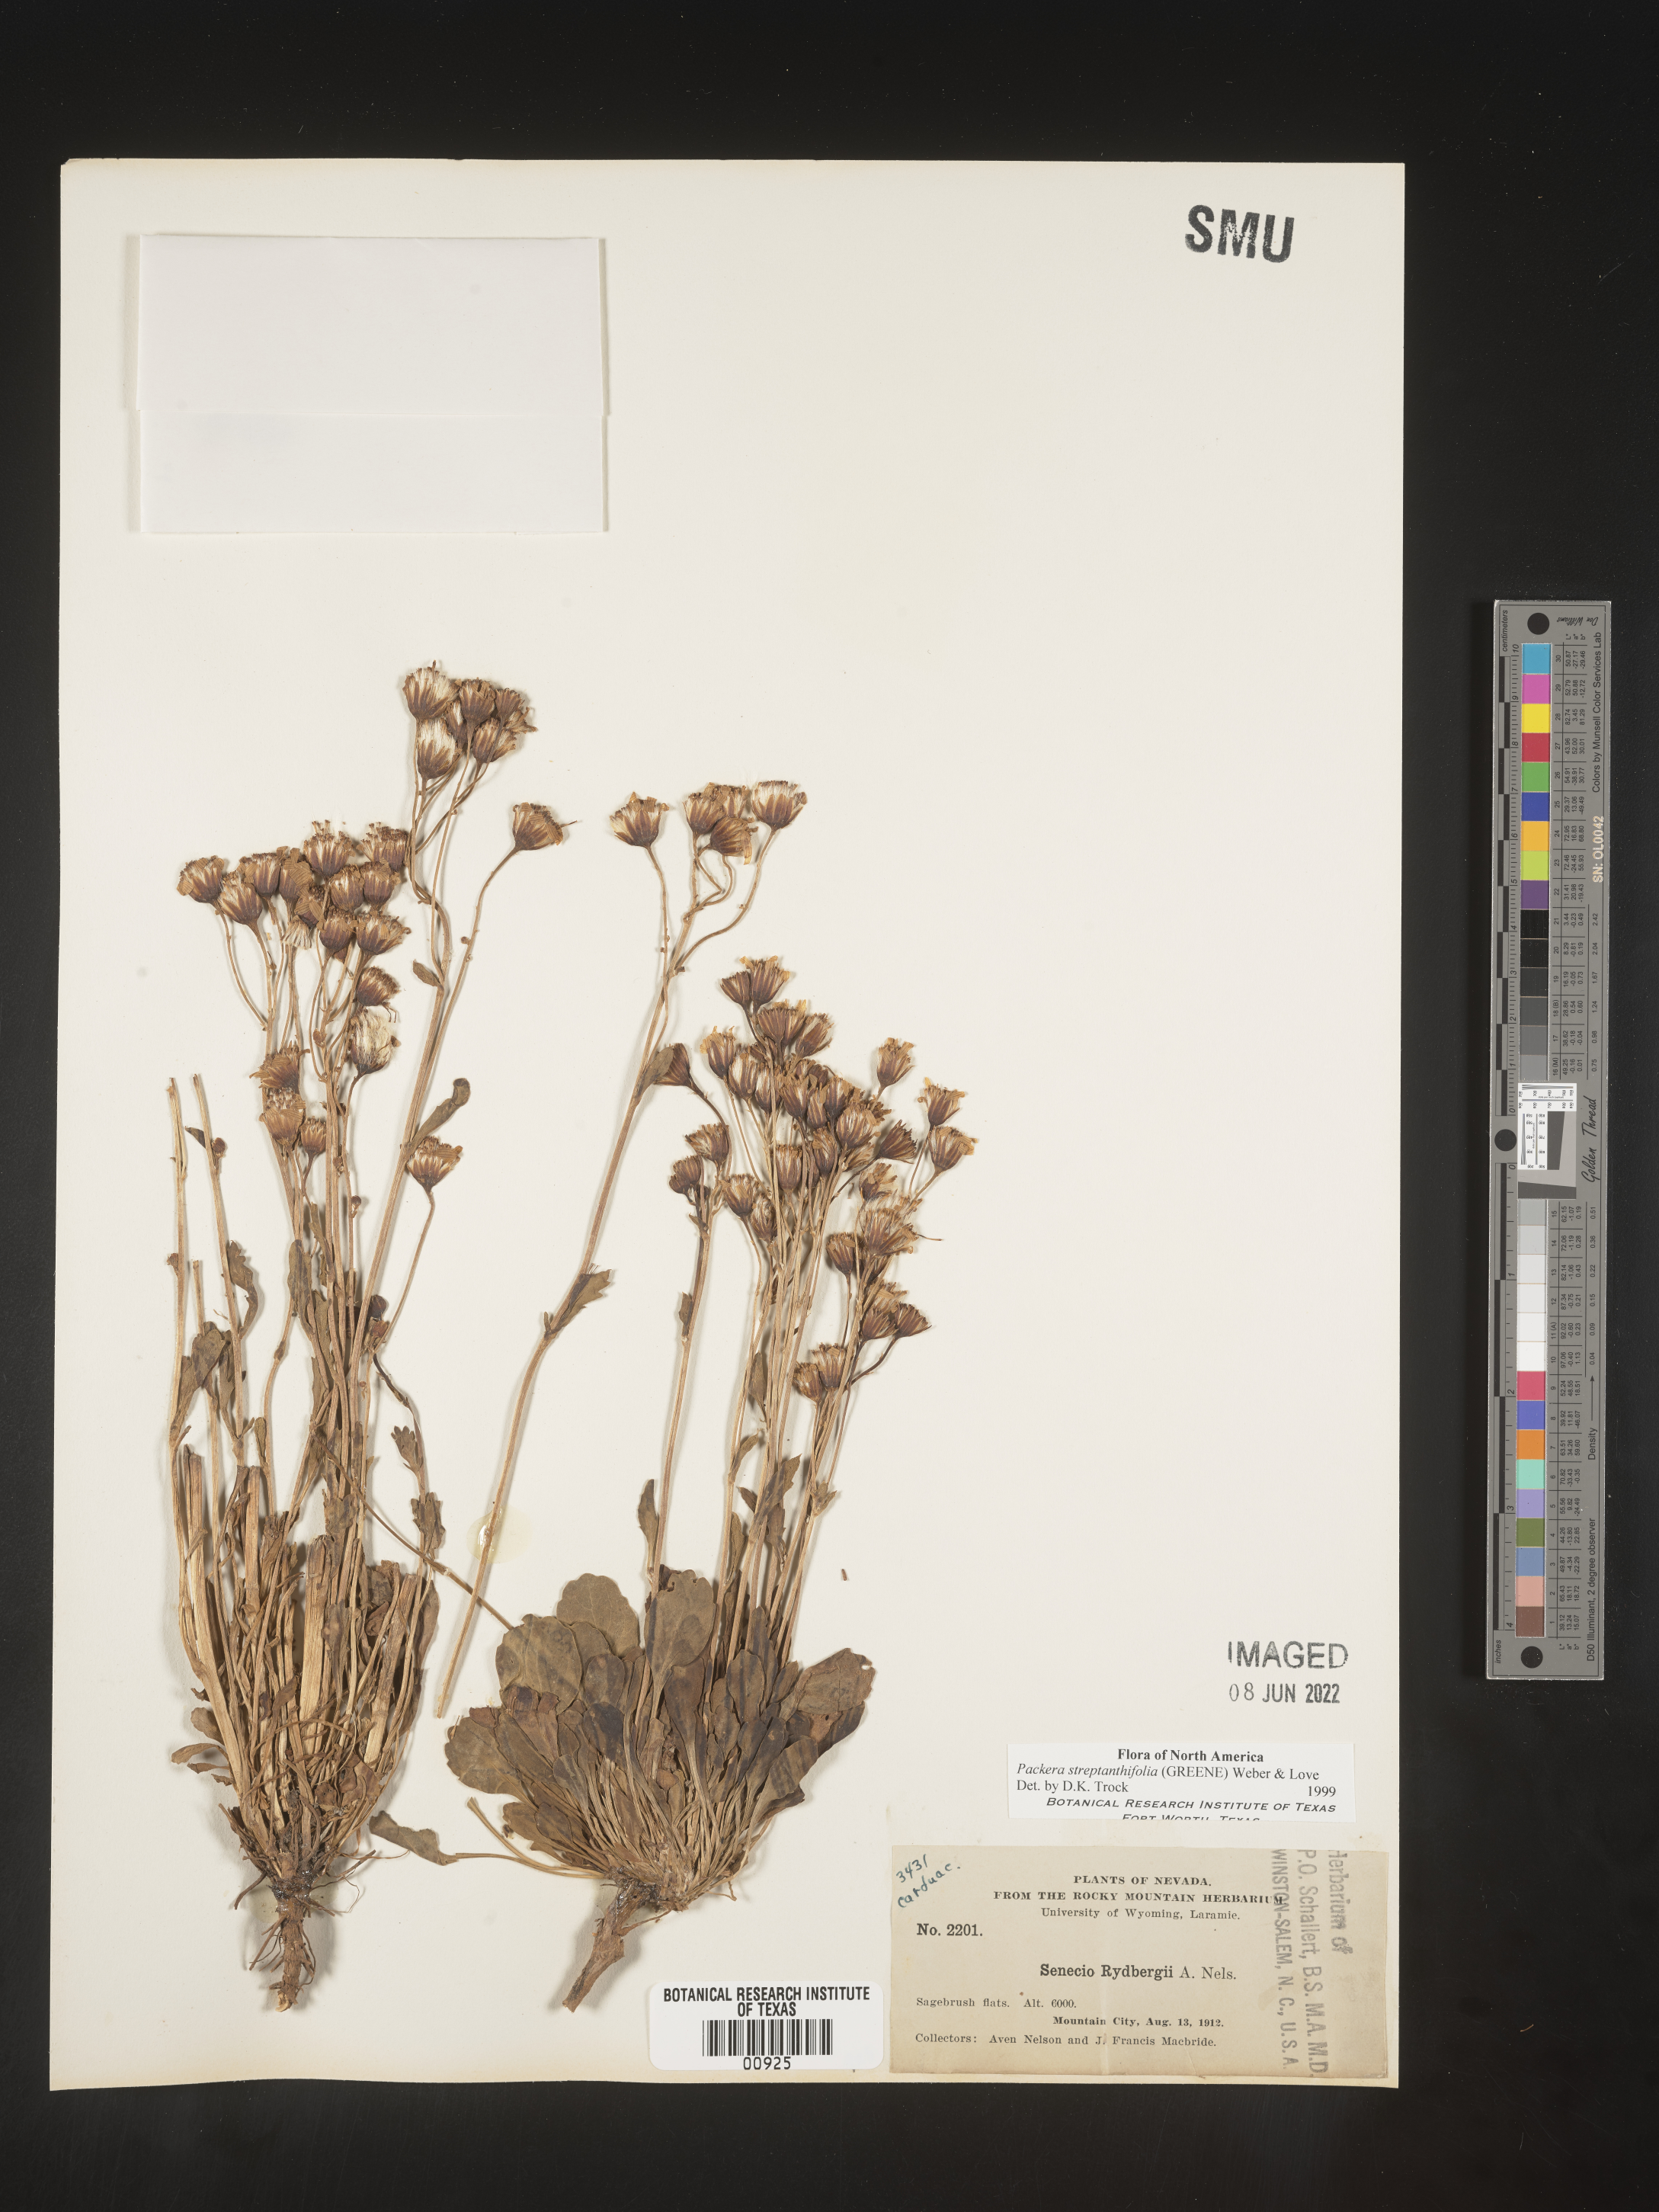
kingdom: Plantae
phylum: Tracheophyta
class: Magnoliopsida
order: Asterales
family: Asteraceae
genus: Packera
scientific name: Packera streptanthifolia
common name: Rocky mountain butterweed
